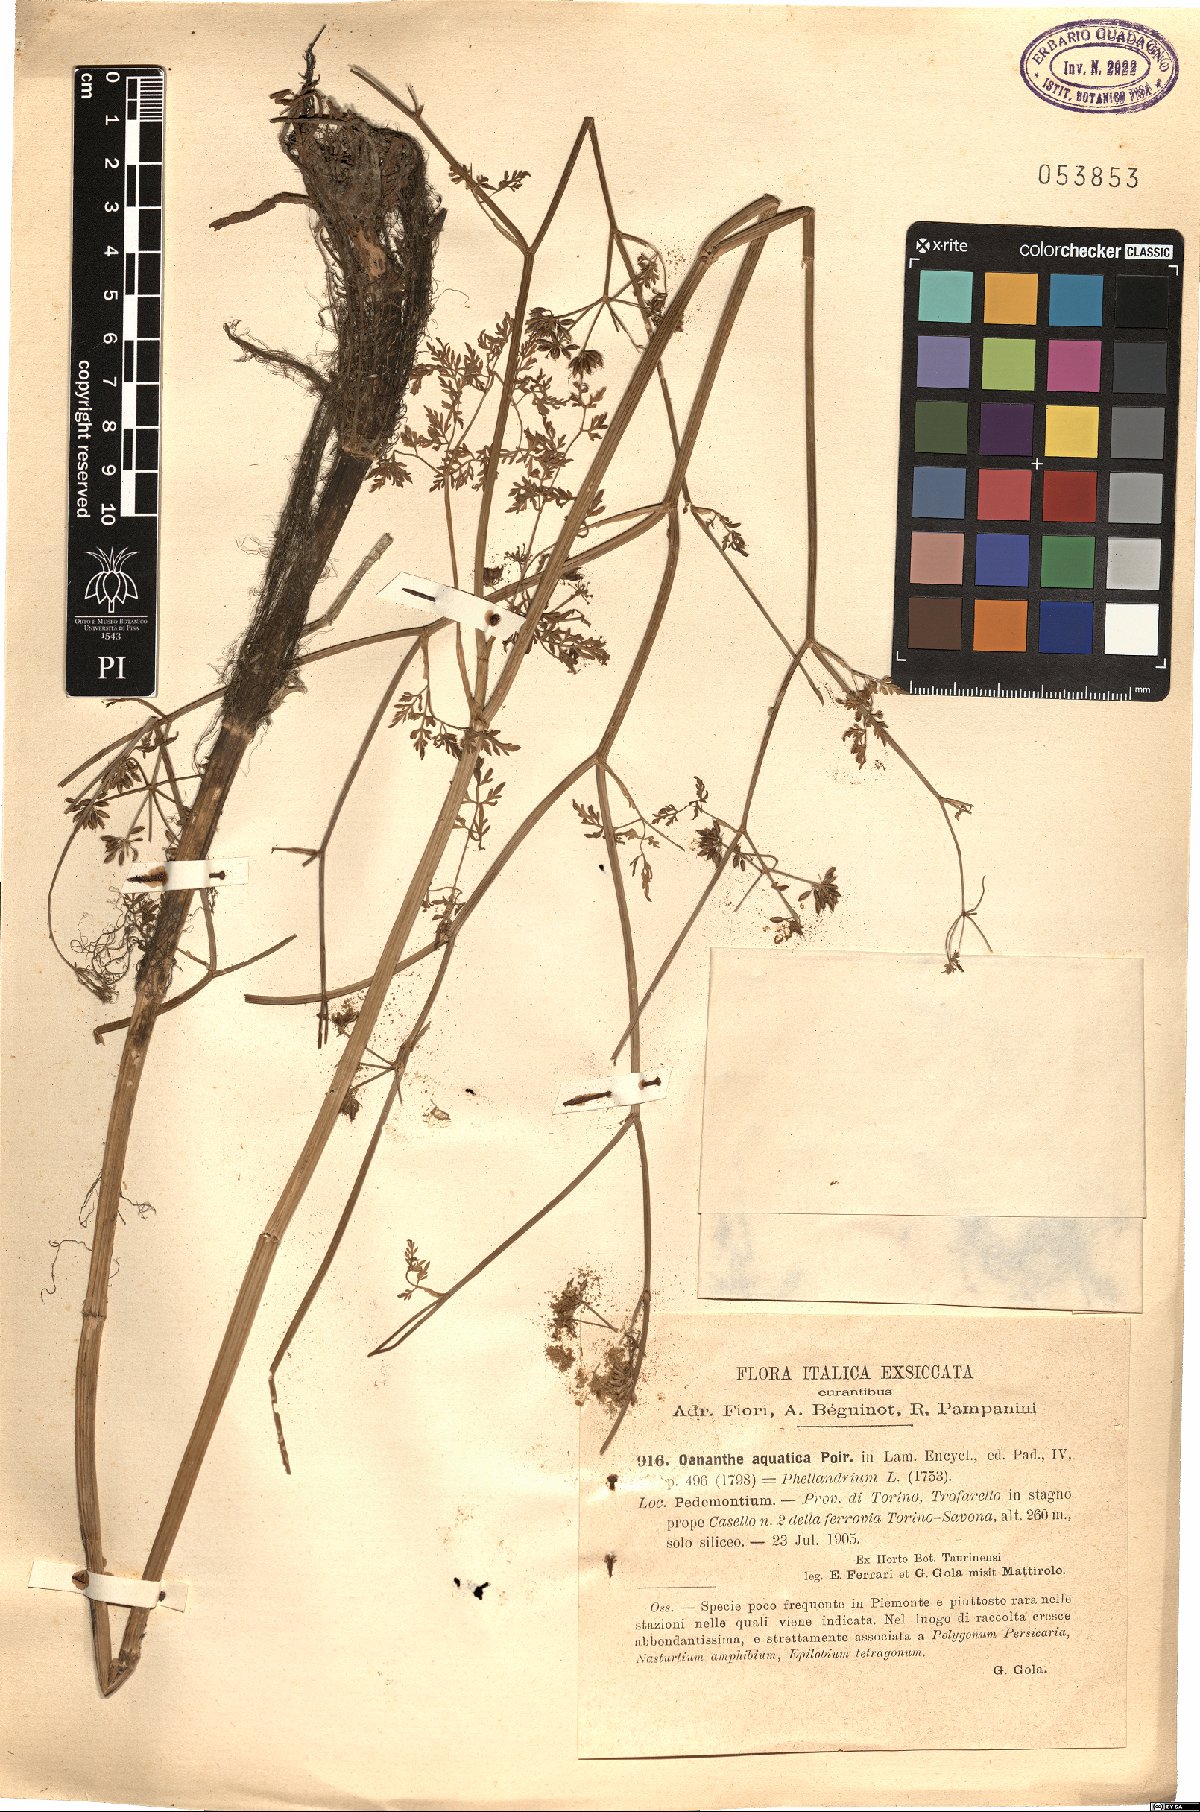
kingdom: Plantae
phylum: Tracheophyta
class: Magnoliopsida
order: Apiales
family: Apiaceae
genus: Oenanthe
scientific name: Oenanthe aquatica
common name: Fine-leaved water-dropwort
